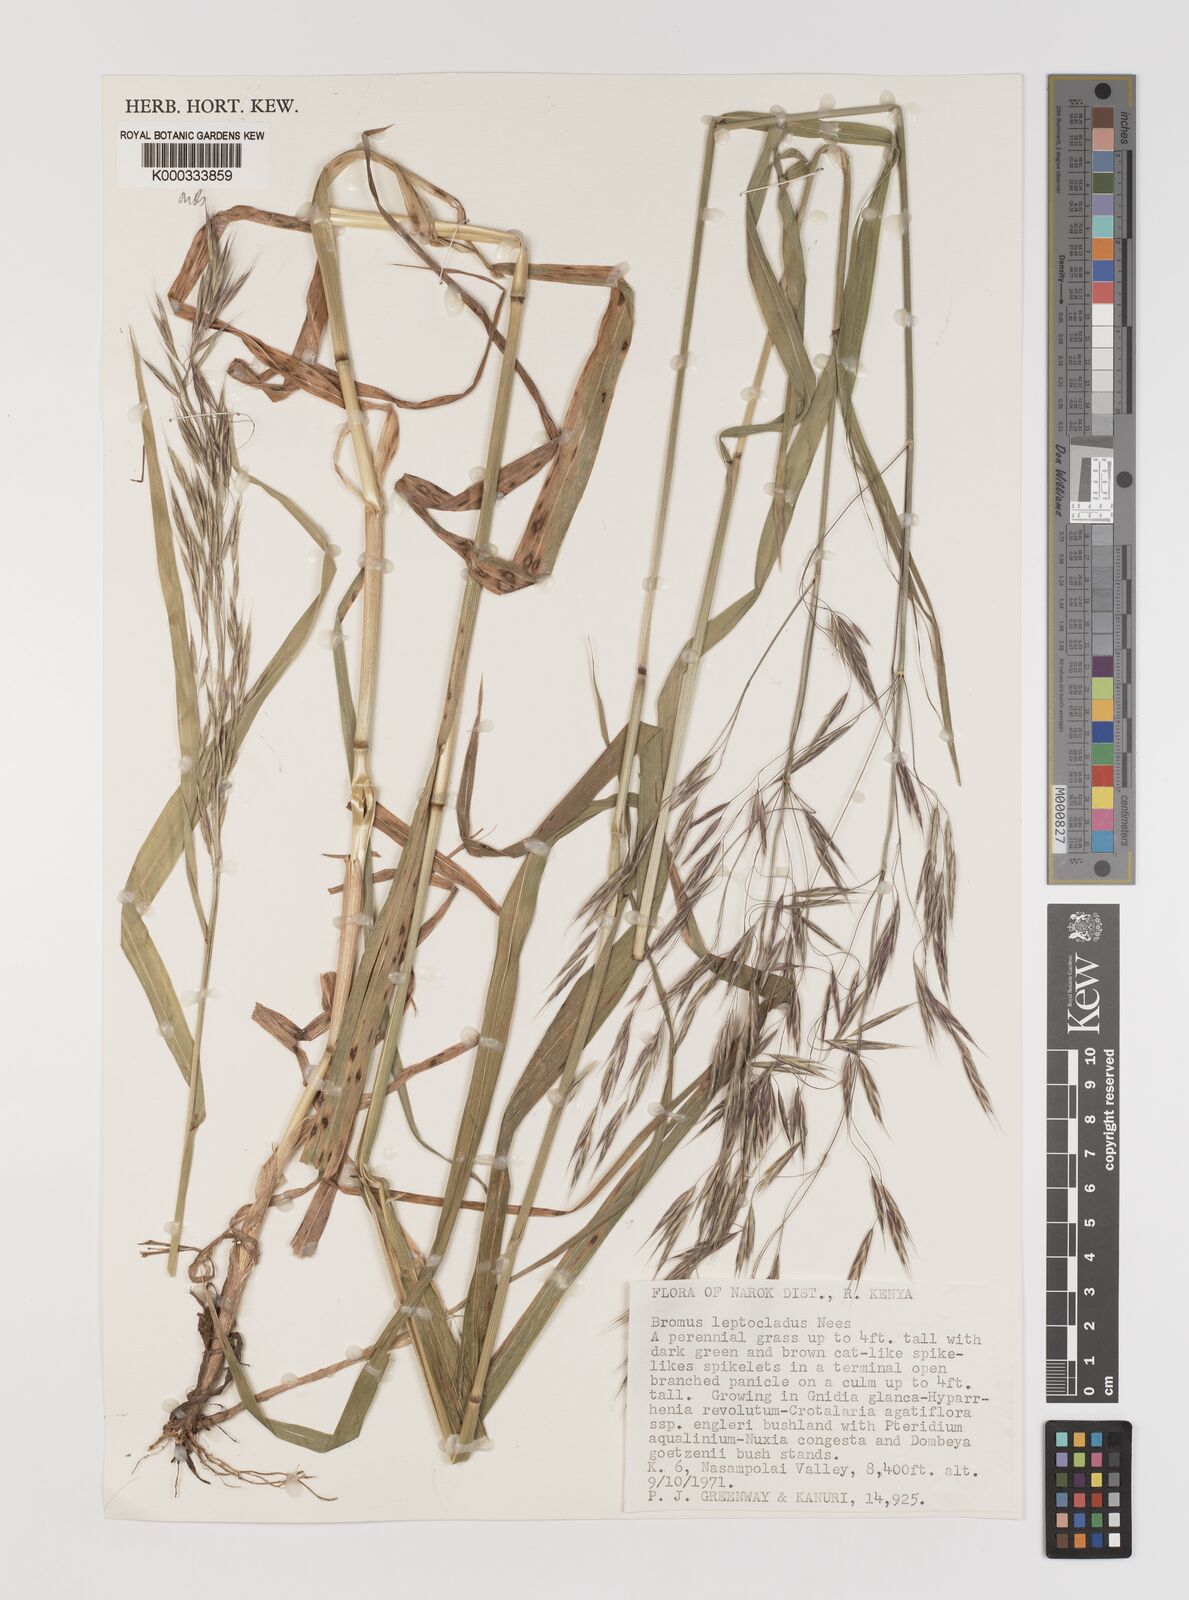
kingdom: Plantae
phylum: Tracheophyta
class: Liliopsida
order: Poales
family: Poaceae
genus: Bromus
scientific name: Bromus leptoclados
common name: Mountain bromegrass
